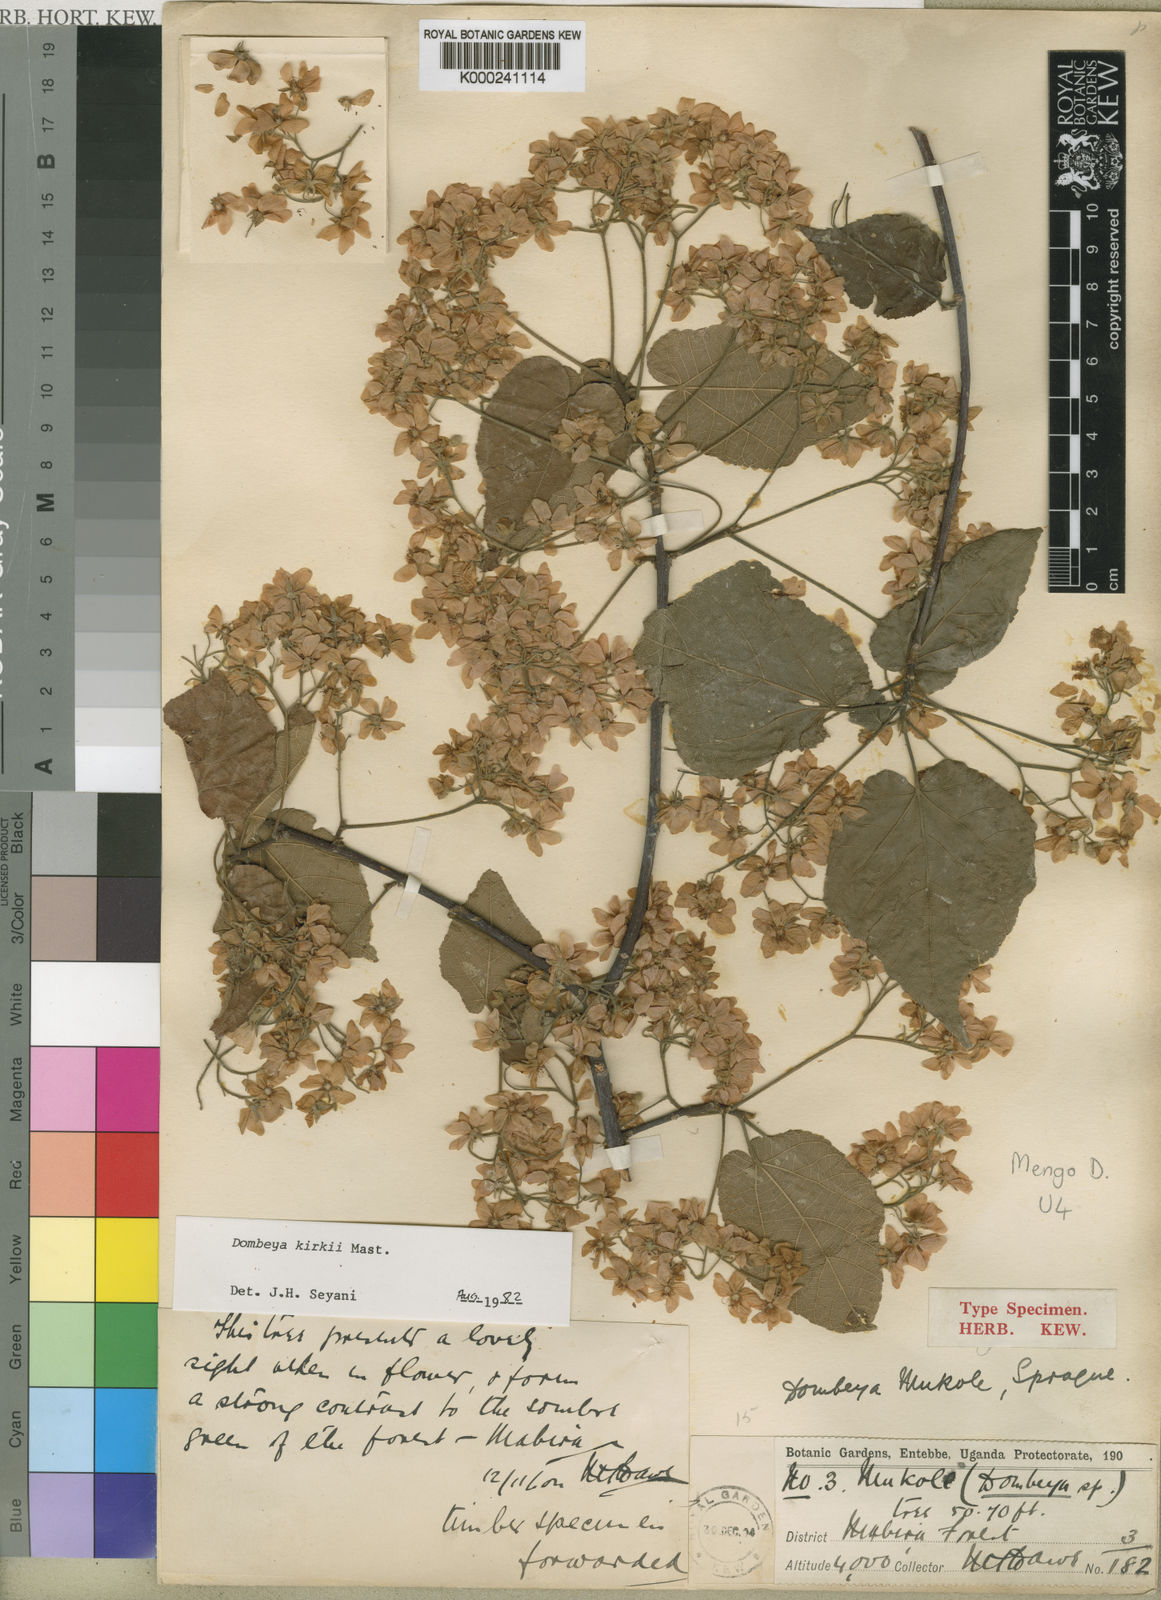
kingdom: Plantae
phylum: Tracheophyta
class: Magnoliopsida
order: Malvales
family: Malvaceae
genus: Dombeya
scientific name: Dombeya kirkii
